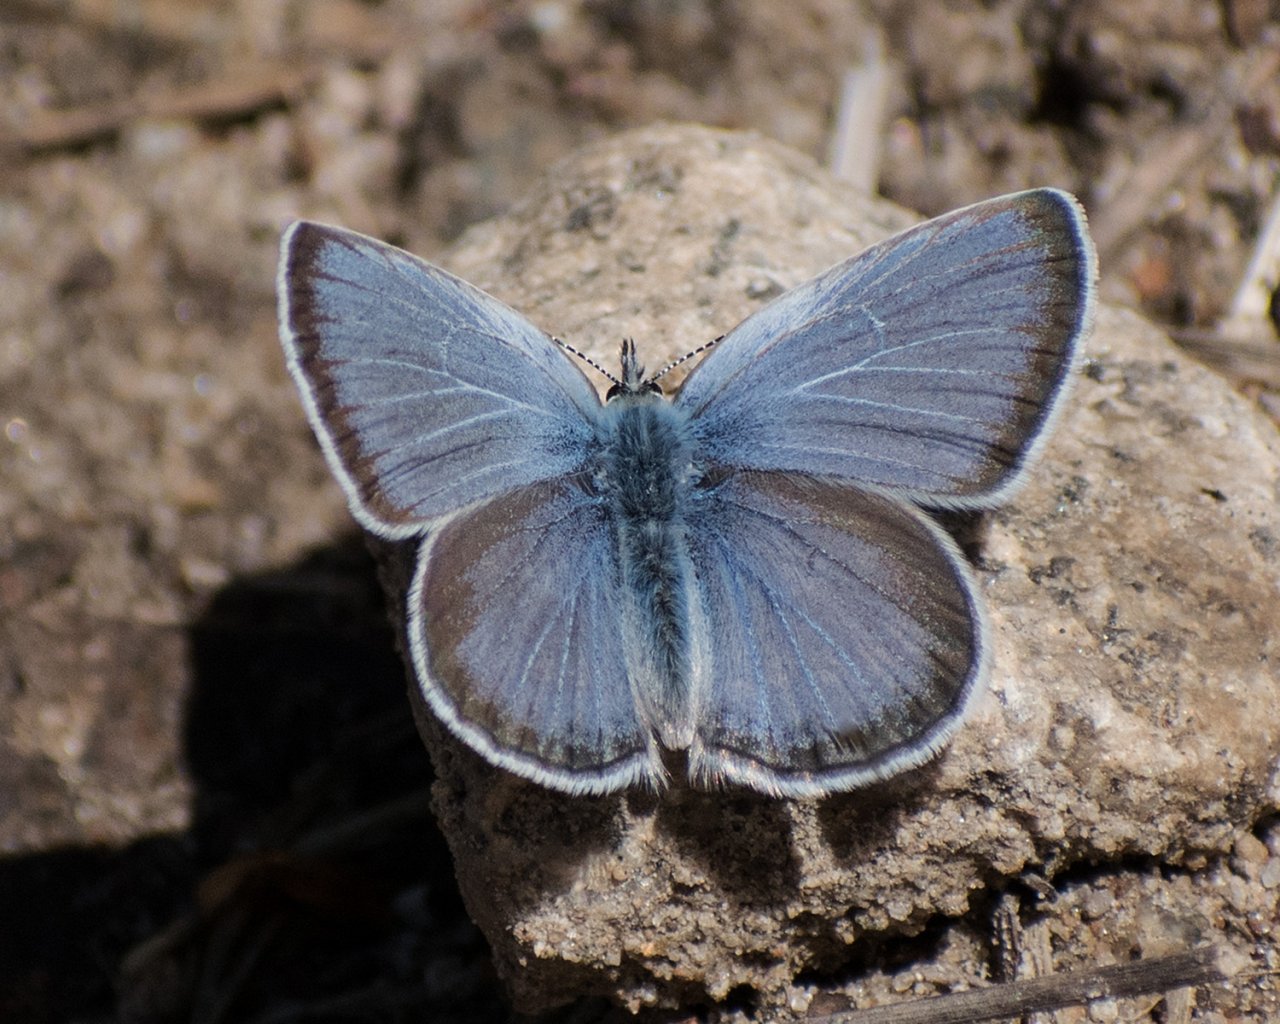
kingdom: Animalia
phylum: Arthropoda
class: Insecta
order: Lepidoptera
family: Lycaenidae
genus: Icaricia
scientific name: Icaricia icarioides
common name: Boisduval's Blue
